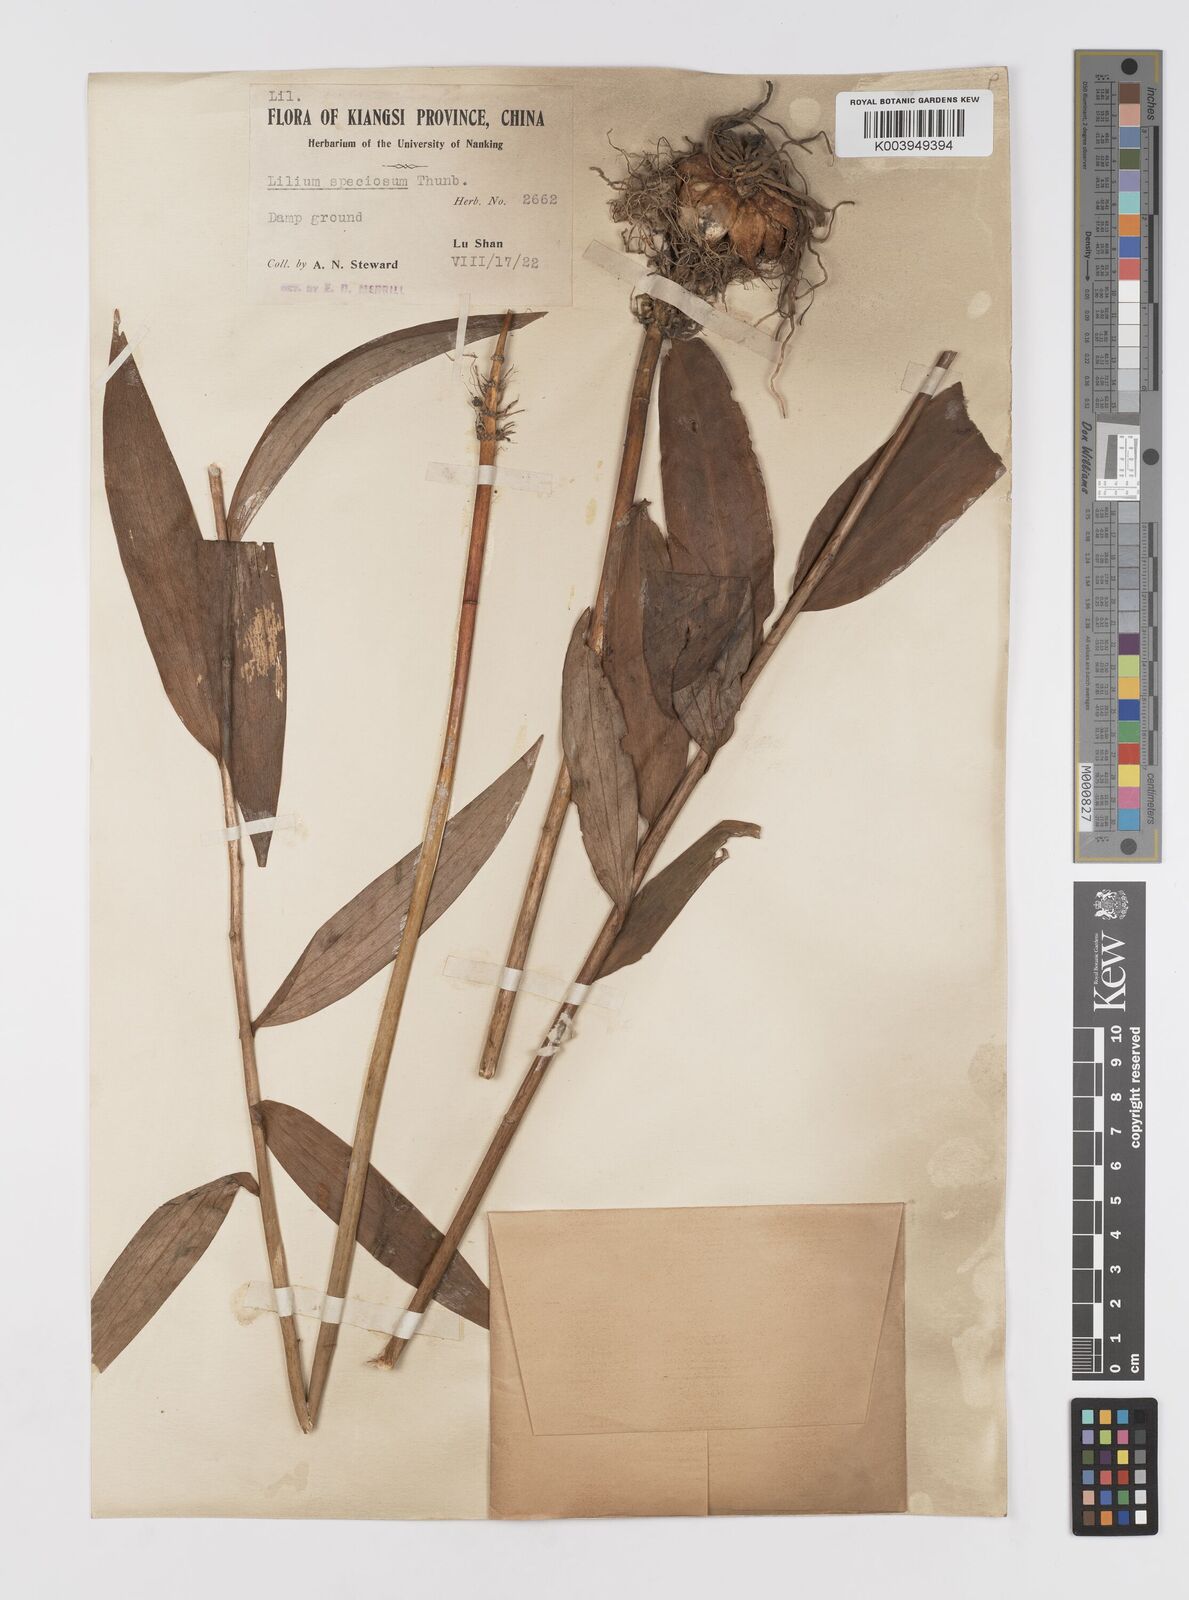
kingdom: Plantae
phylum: Tracheophyta
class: Liliopsida
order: Liliales
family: Liliaceae
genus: Lilium
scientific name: Lilium speciosum
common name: Japanese lily
